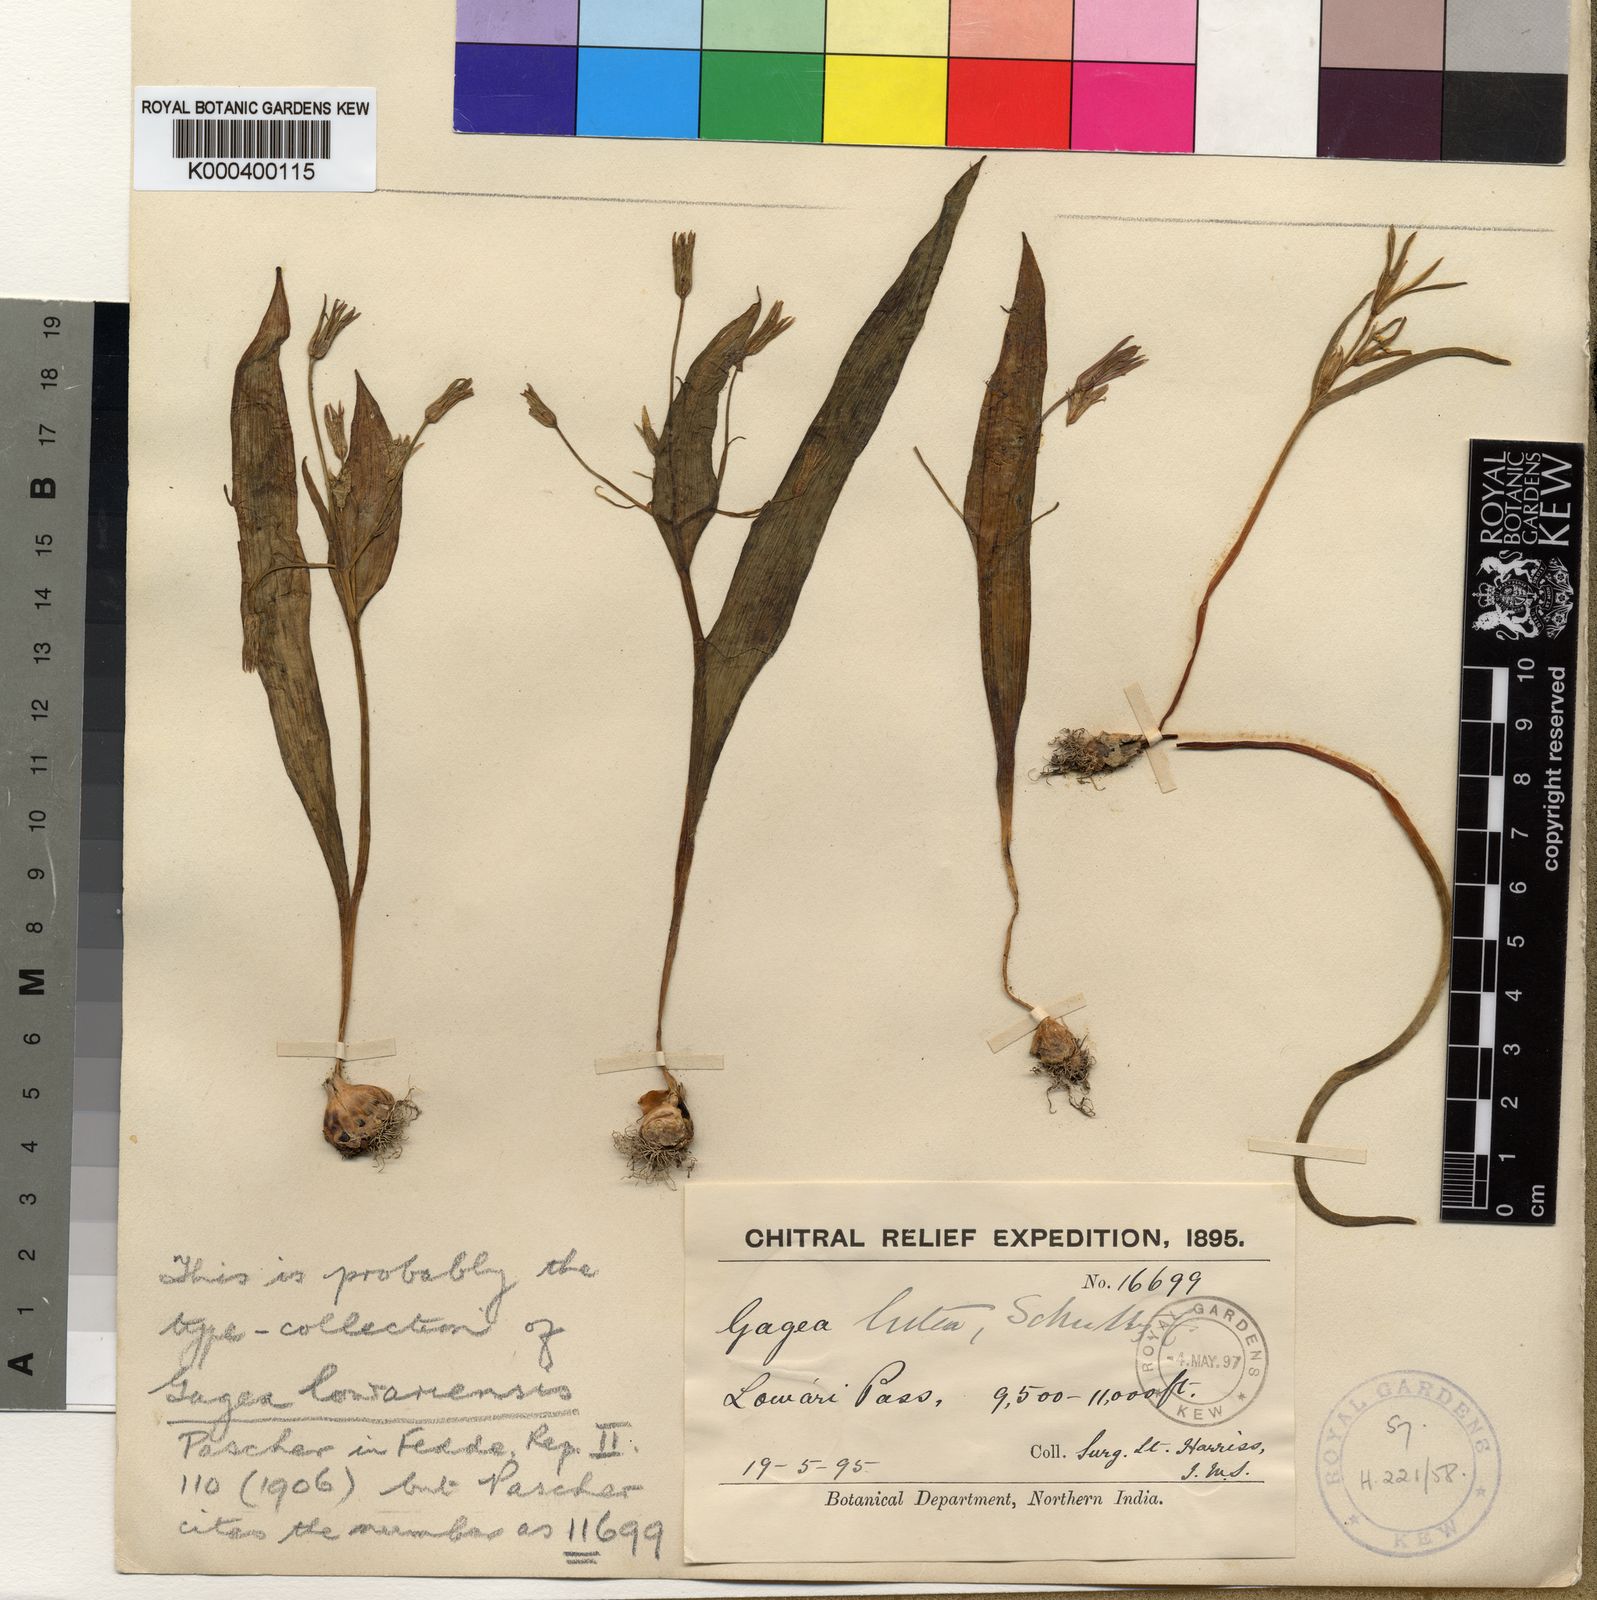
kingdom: Plantae
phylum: Tracheophyta
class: Liliopsida
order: Liliales
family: Liliaceae
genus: Gagea
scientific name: Gagea lutea
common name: Yellow star-of-bethlehem
